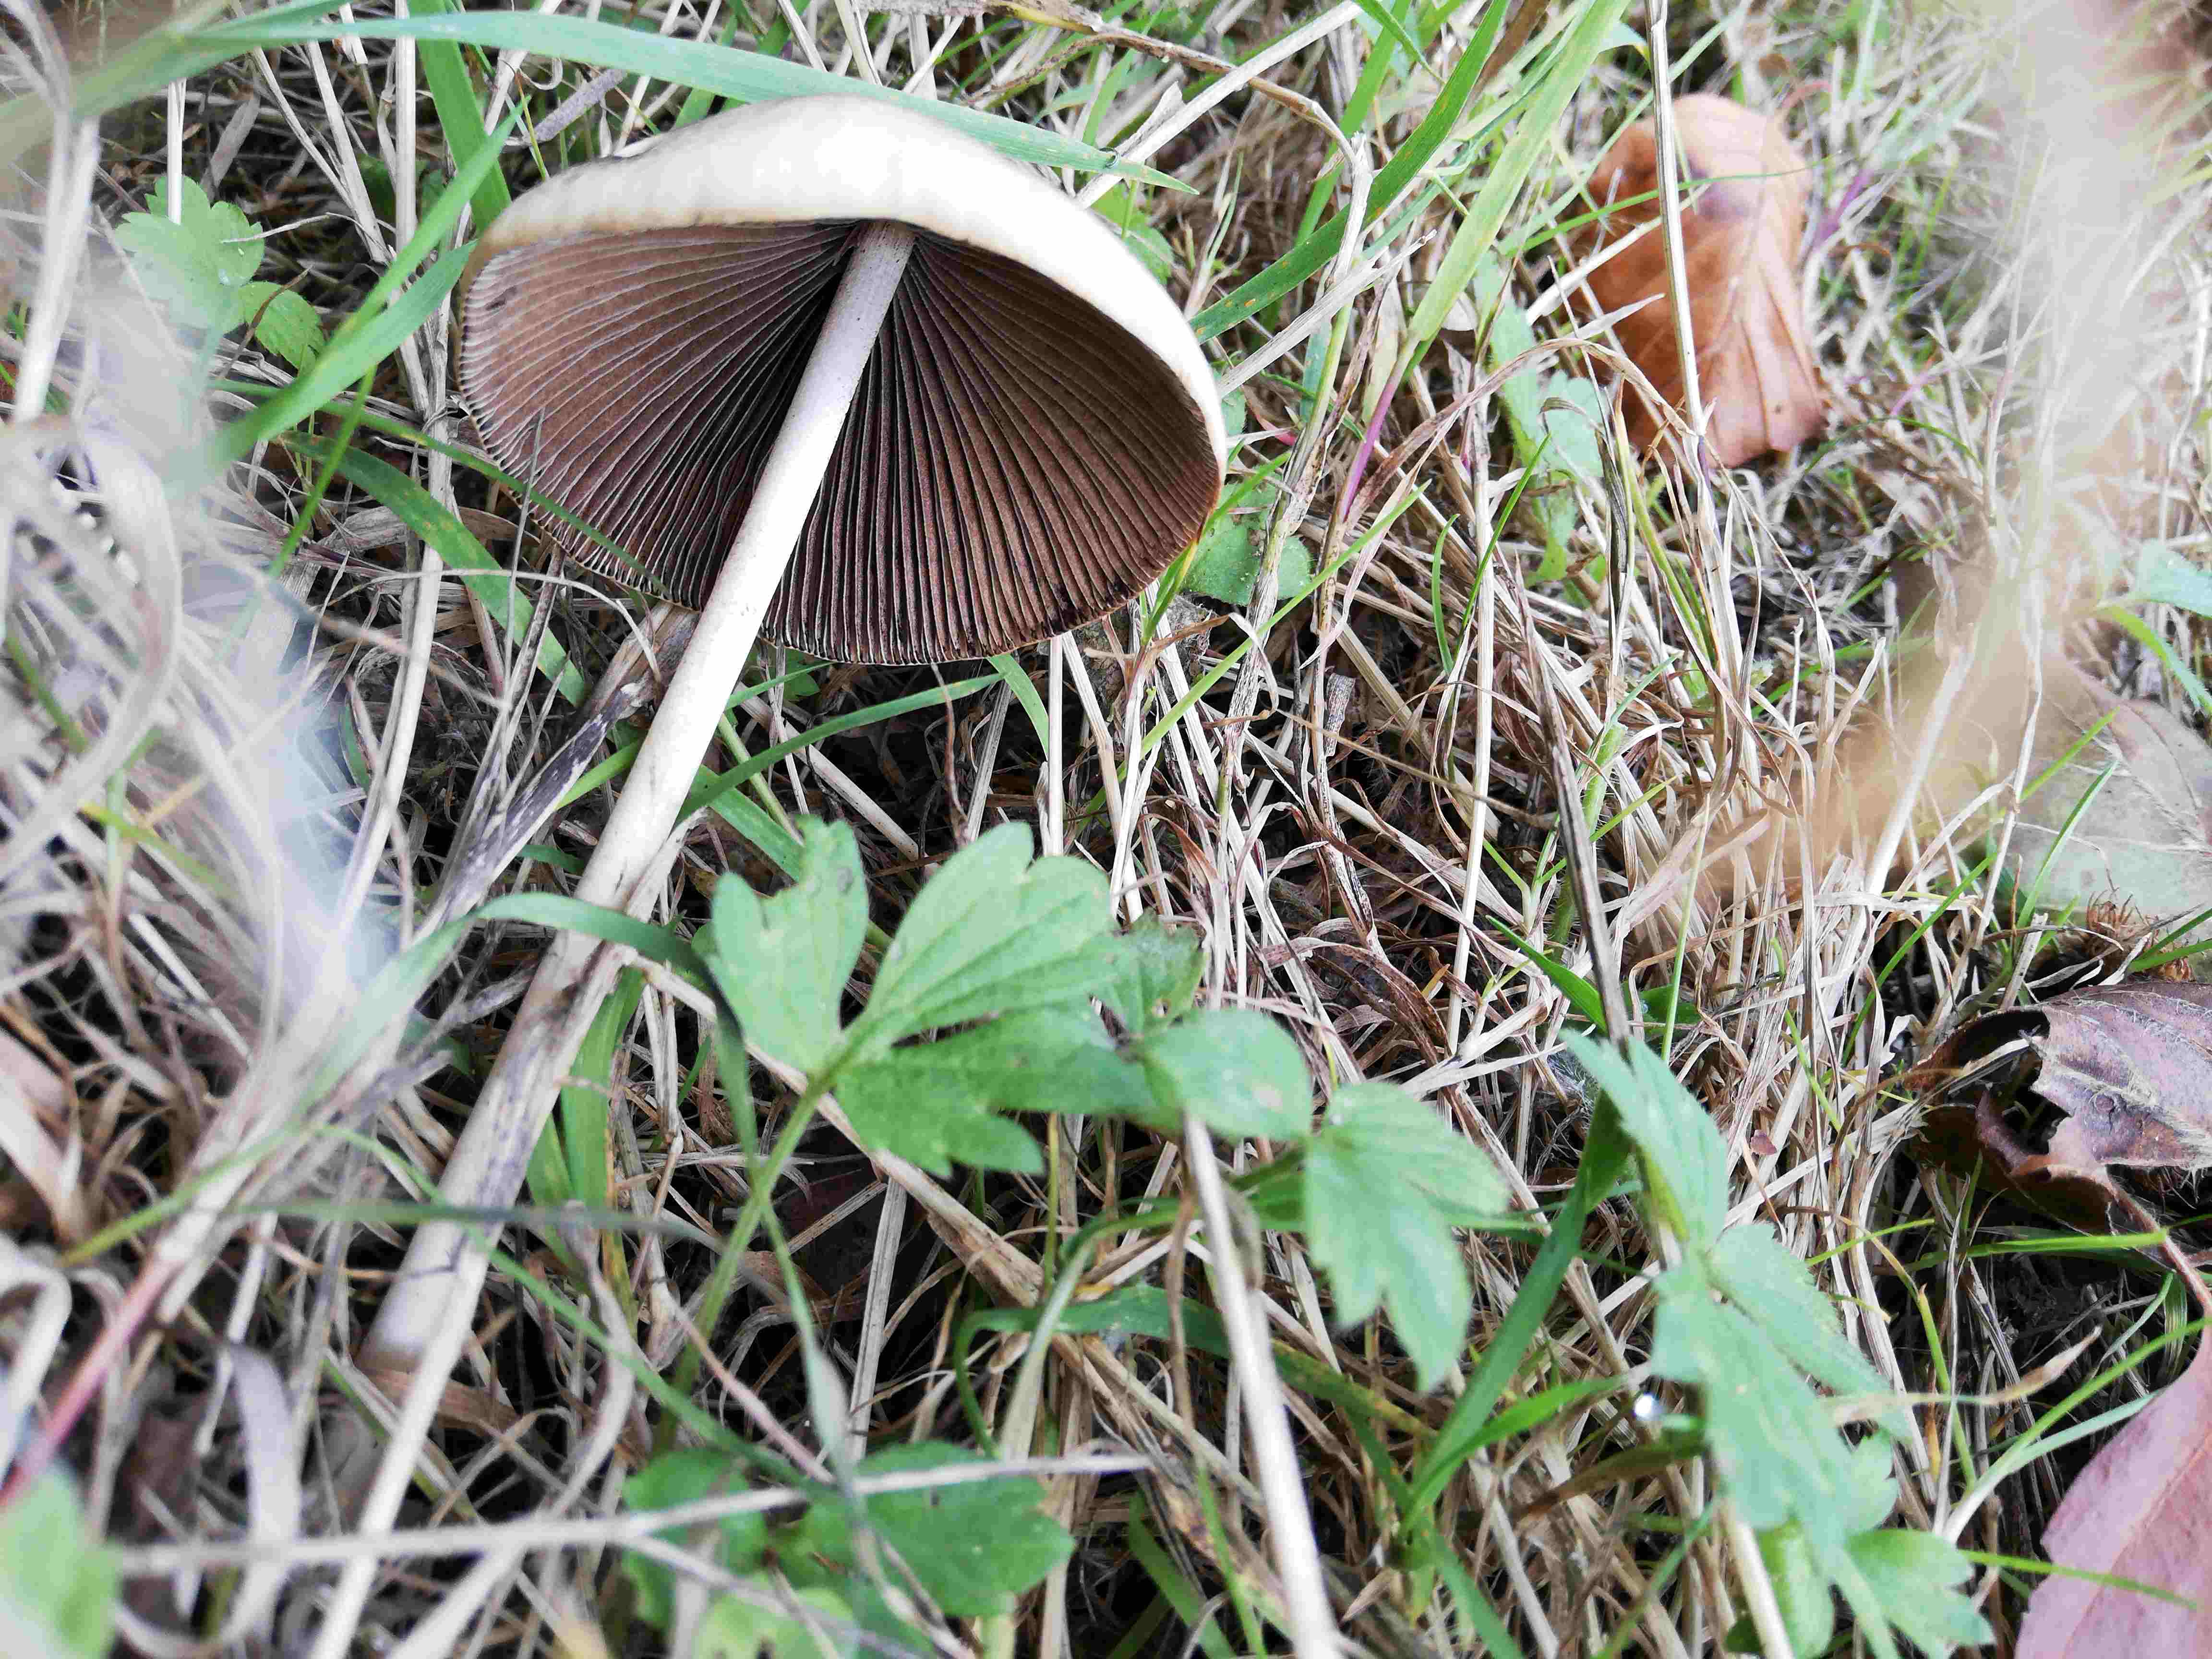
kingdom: Fungi
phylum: Basidiomycota
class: Agaricomycetes
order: Agaricales
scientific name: Agaricales
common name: champignonordenen
